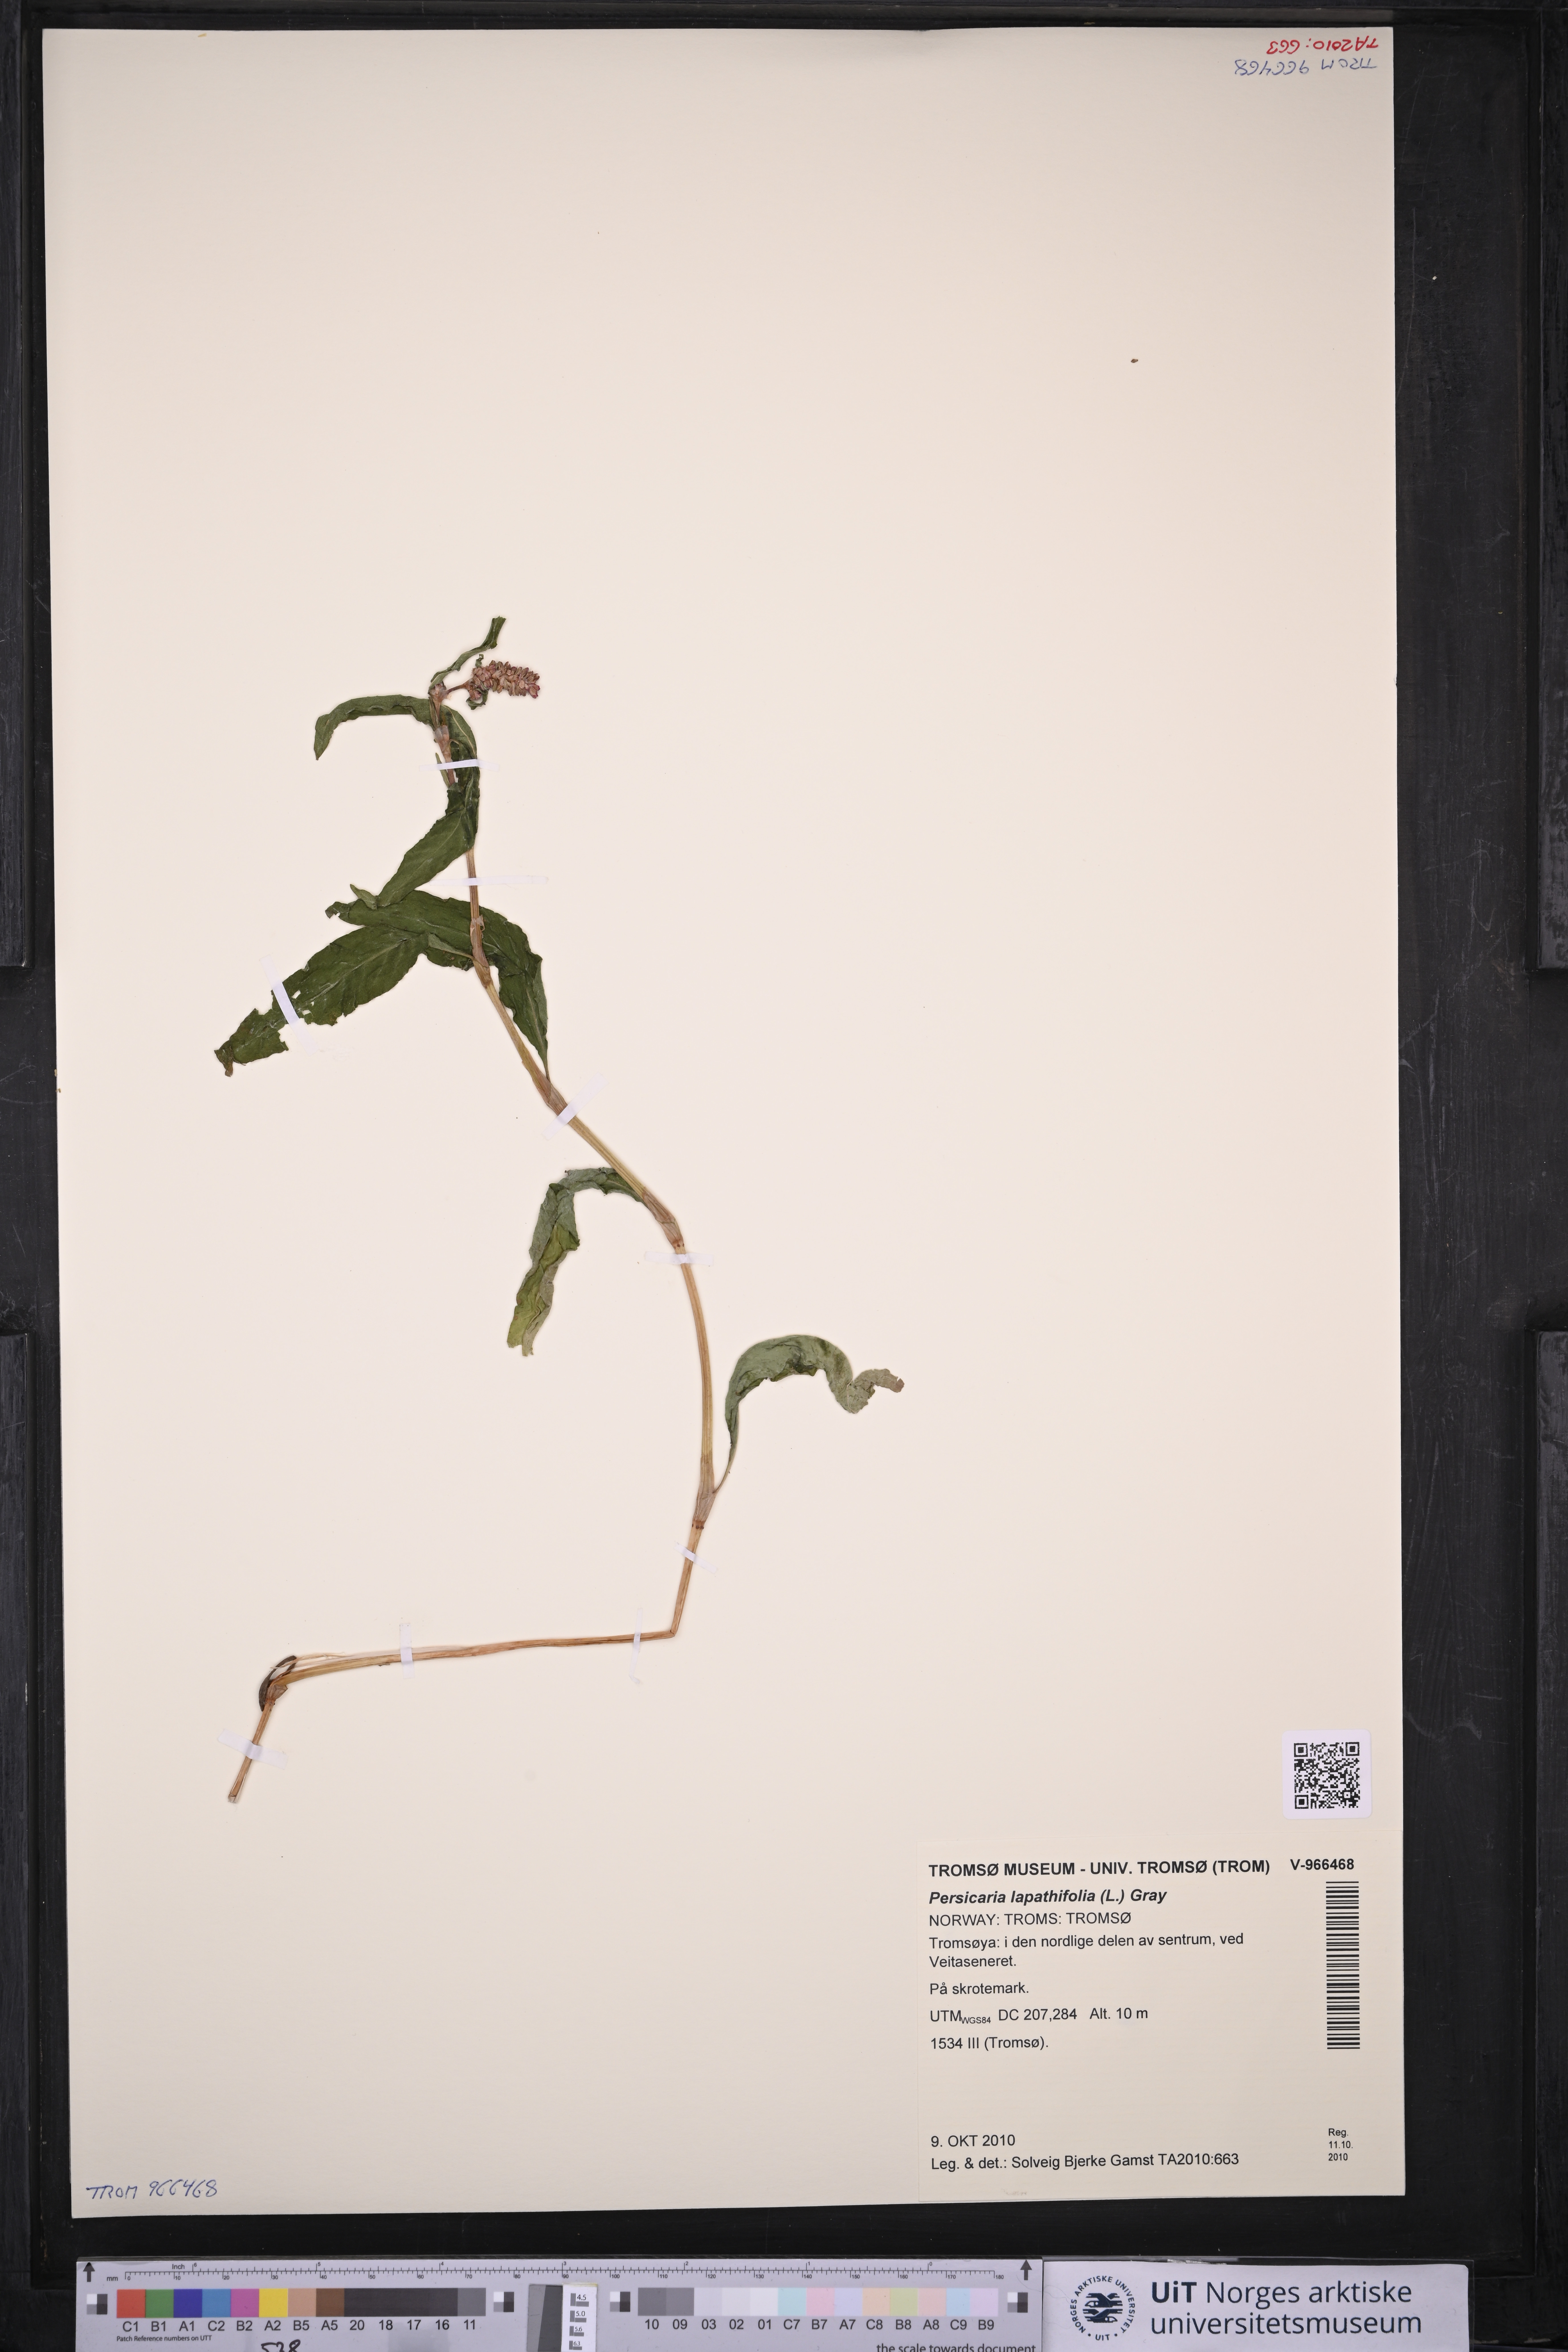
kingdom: Plantae
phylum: Tracheophyta
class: Magnoliopsida
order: Caryophyllales
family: Polygonaceae
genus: Persicaria
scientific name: Persicaria lapathifolia
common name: Curlytop knotweed
